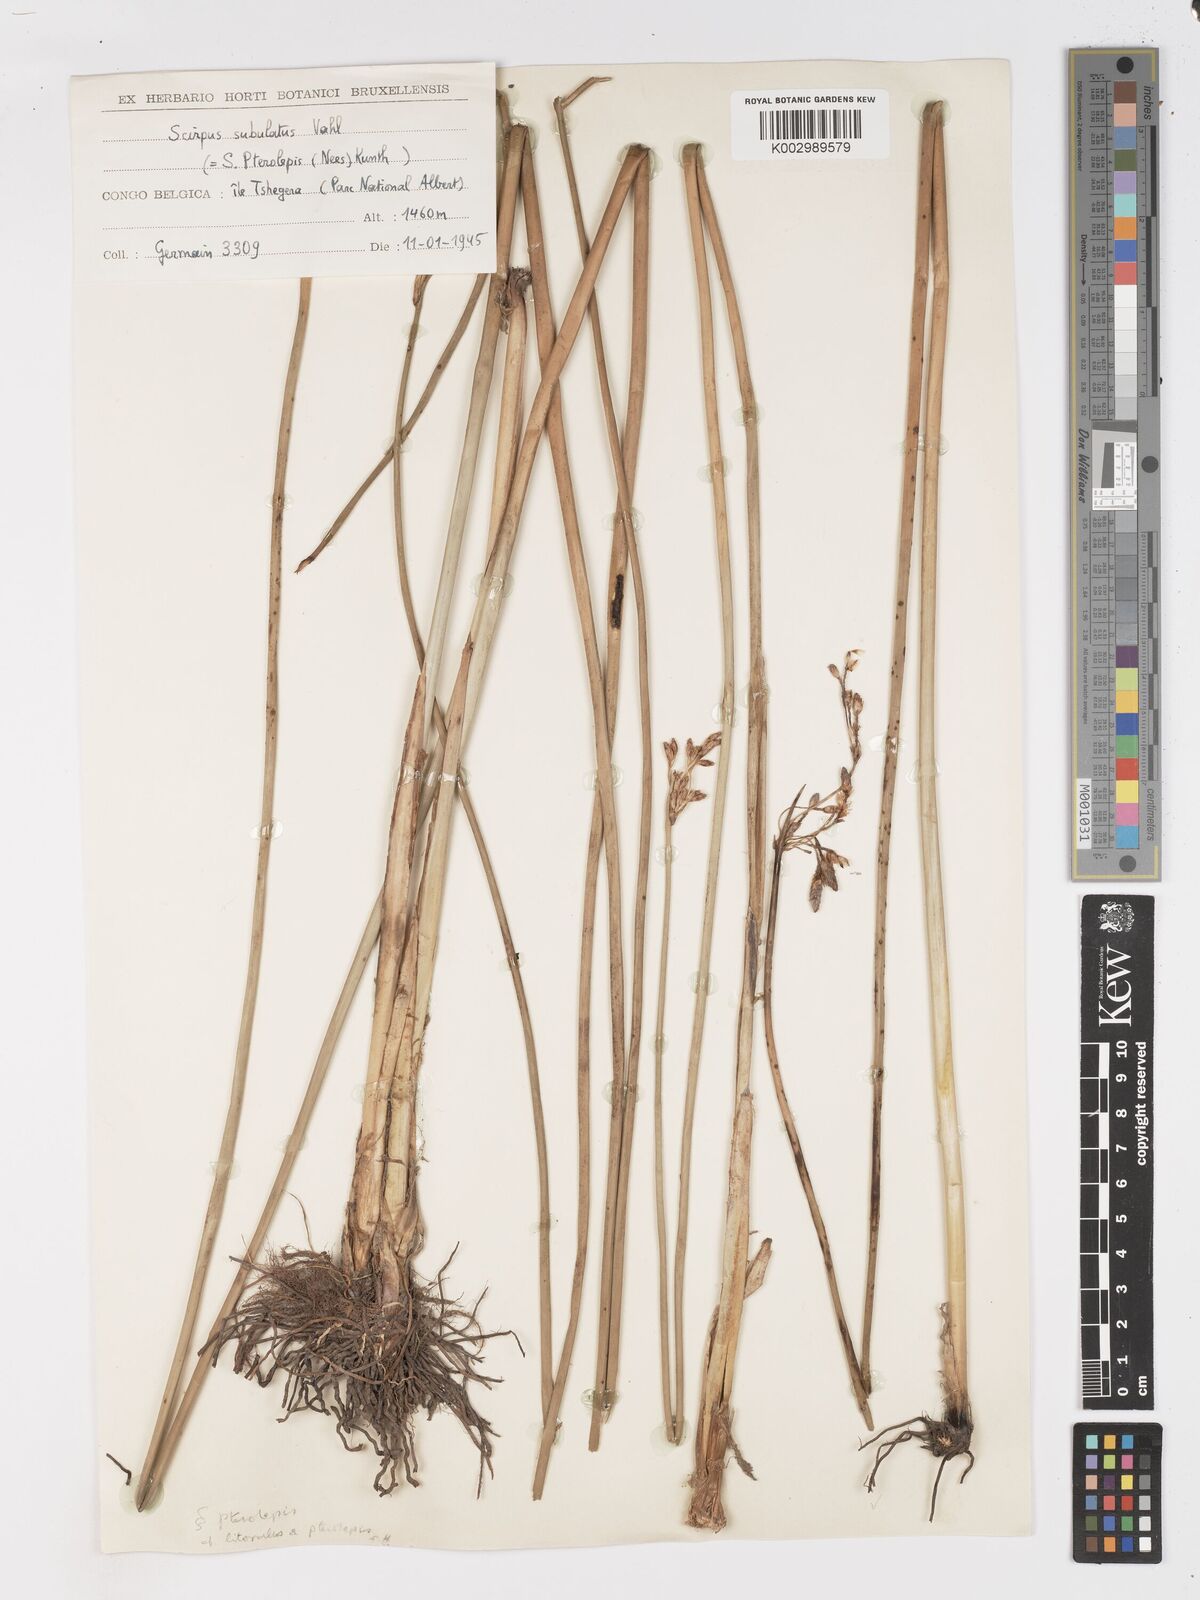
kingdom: Plantae
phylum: Tracheophyta
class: Liliopsida
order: Poales
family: Cyperaceae
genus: Schoenoplectus
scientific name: Schoenoplectus litoralis
